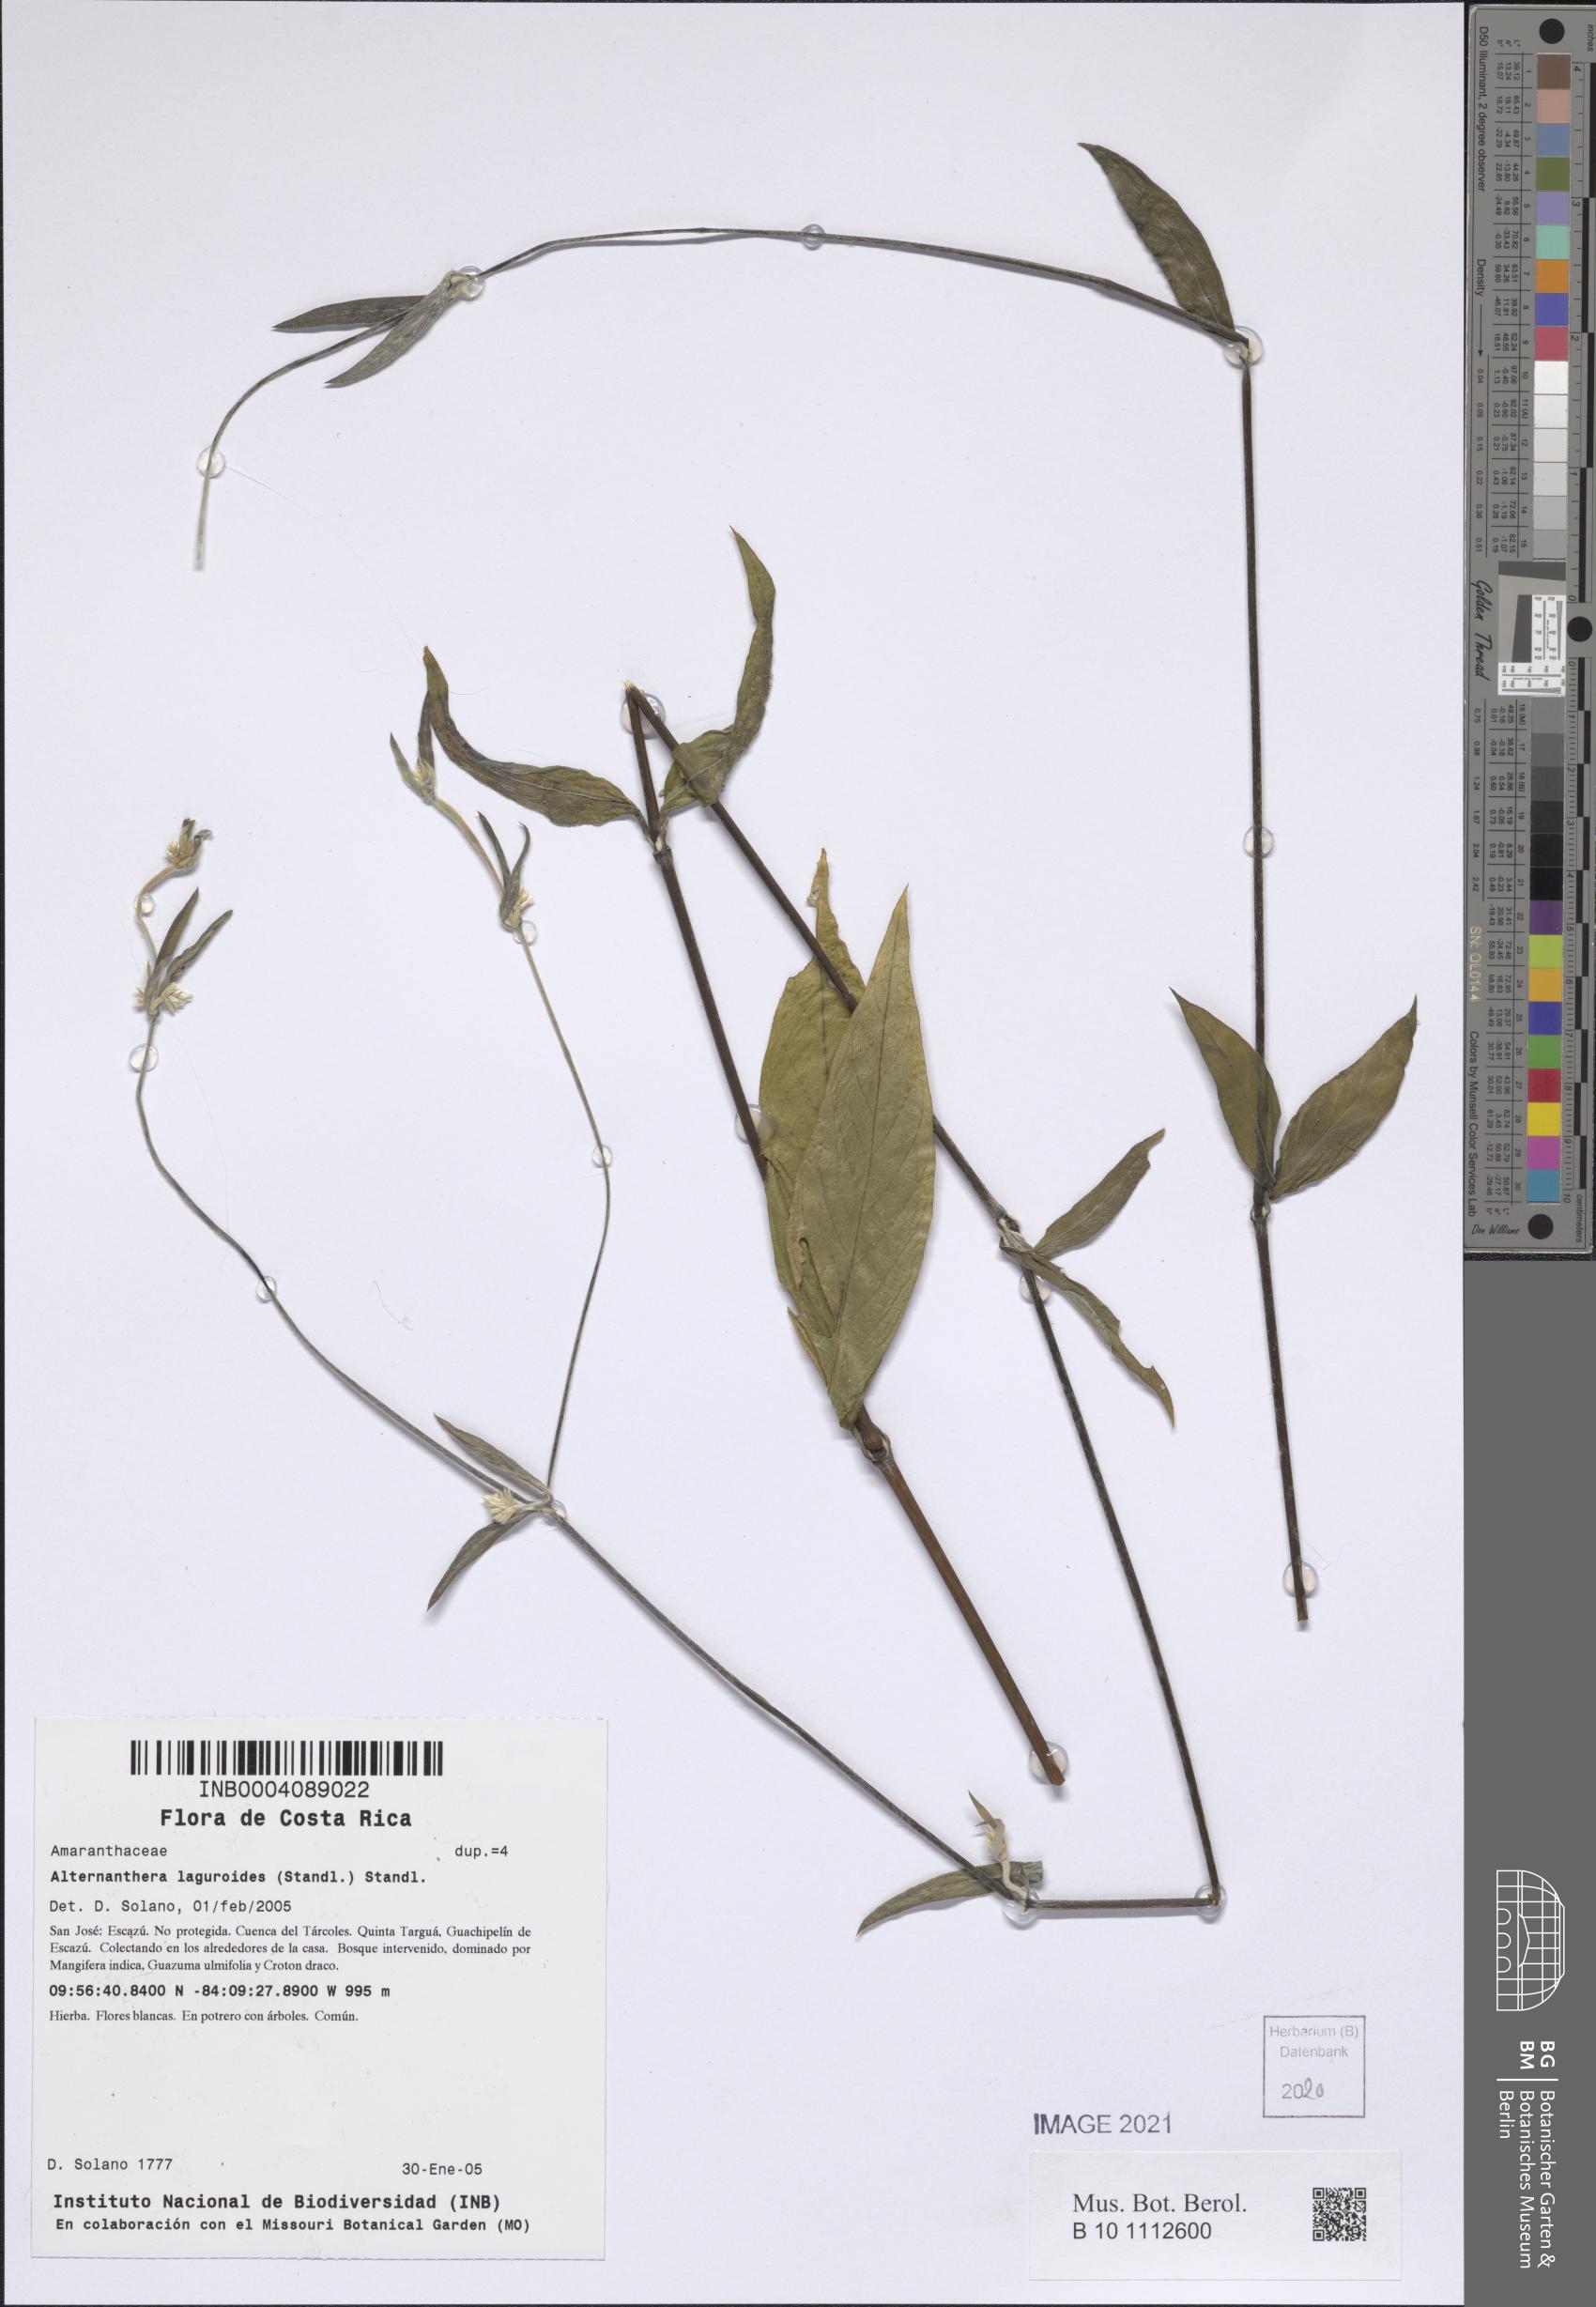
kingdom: Plantae
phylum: Tracheophyta
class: Magnoliopsida
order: Caryophyllales
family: Amaranthaceae
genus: Alternanthera
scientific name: Alternanthera laguroides
